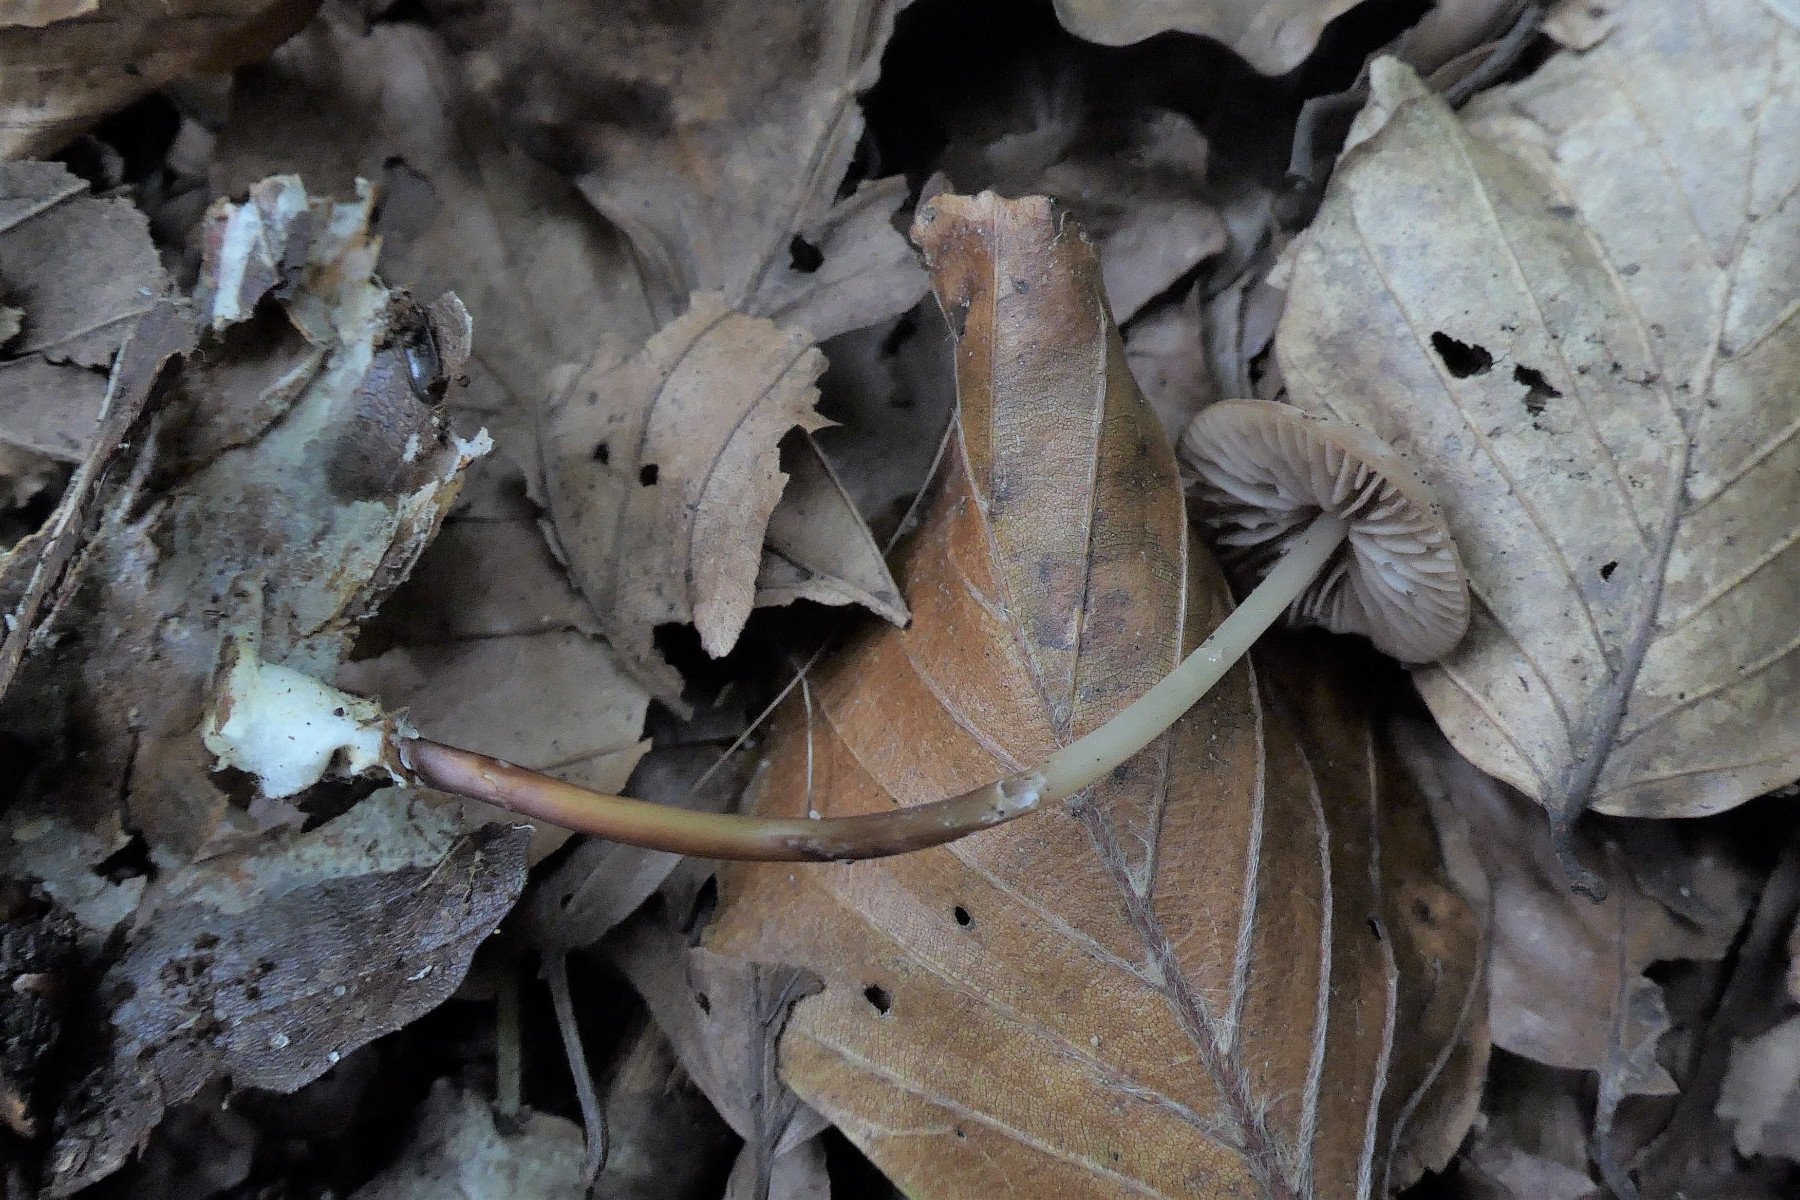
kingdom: Fungi
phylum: Basidiomycota
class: Agaricomycetes
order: Agaricales
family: Marasmiaceae
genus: Marasmius
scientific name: Marasmius torquescens
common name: filtfodet bruskhat
